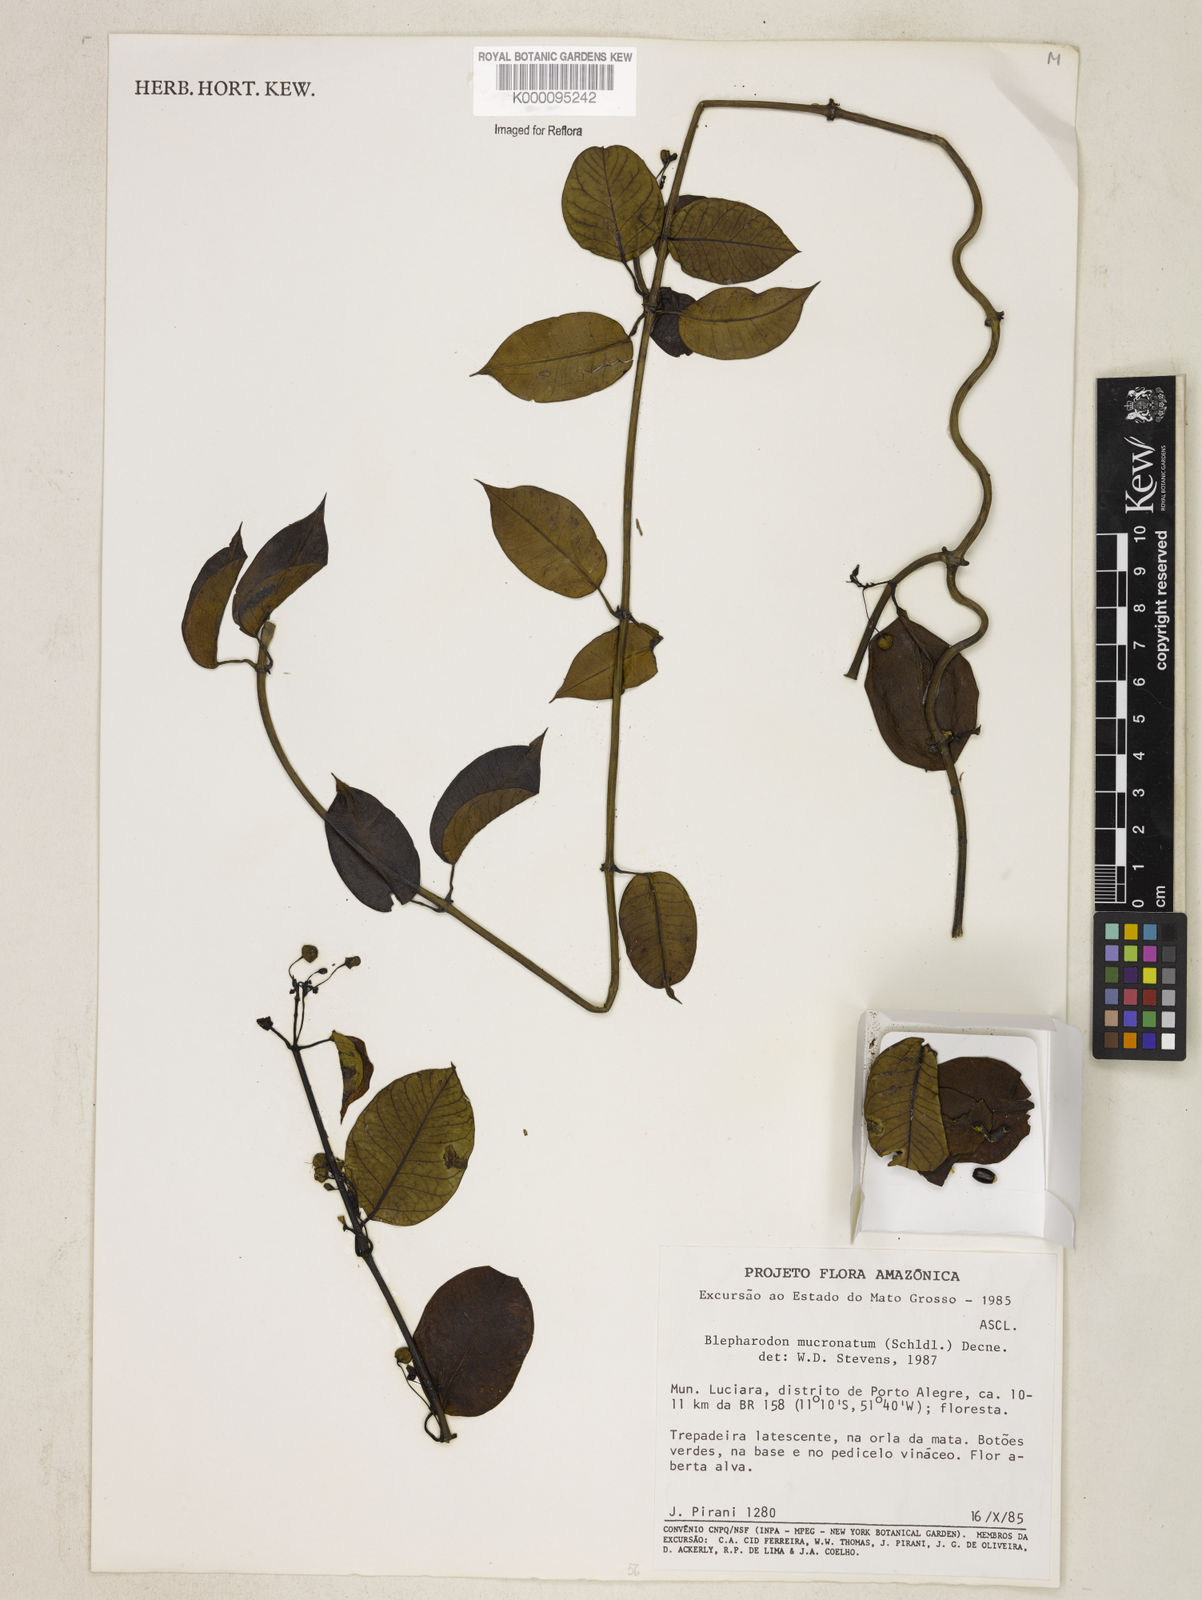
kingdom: Plantae
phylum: Tracheophyta
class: Magnoliopsida
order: Gentianales
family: Apocynaceae
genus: Vailia
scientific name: Vailia anomala
